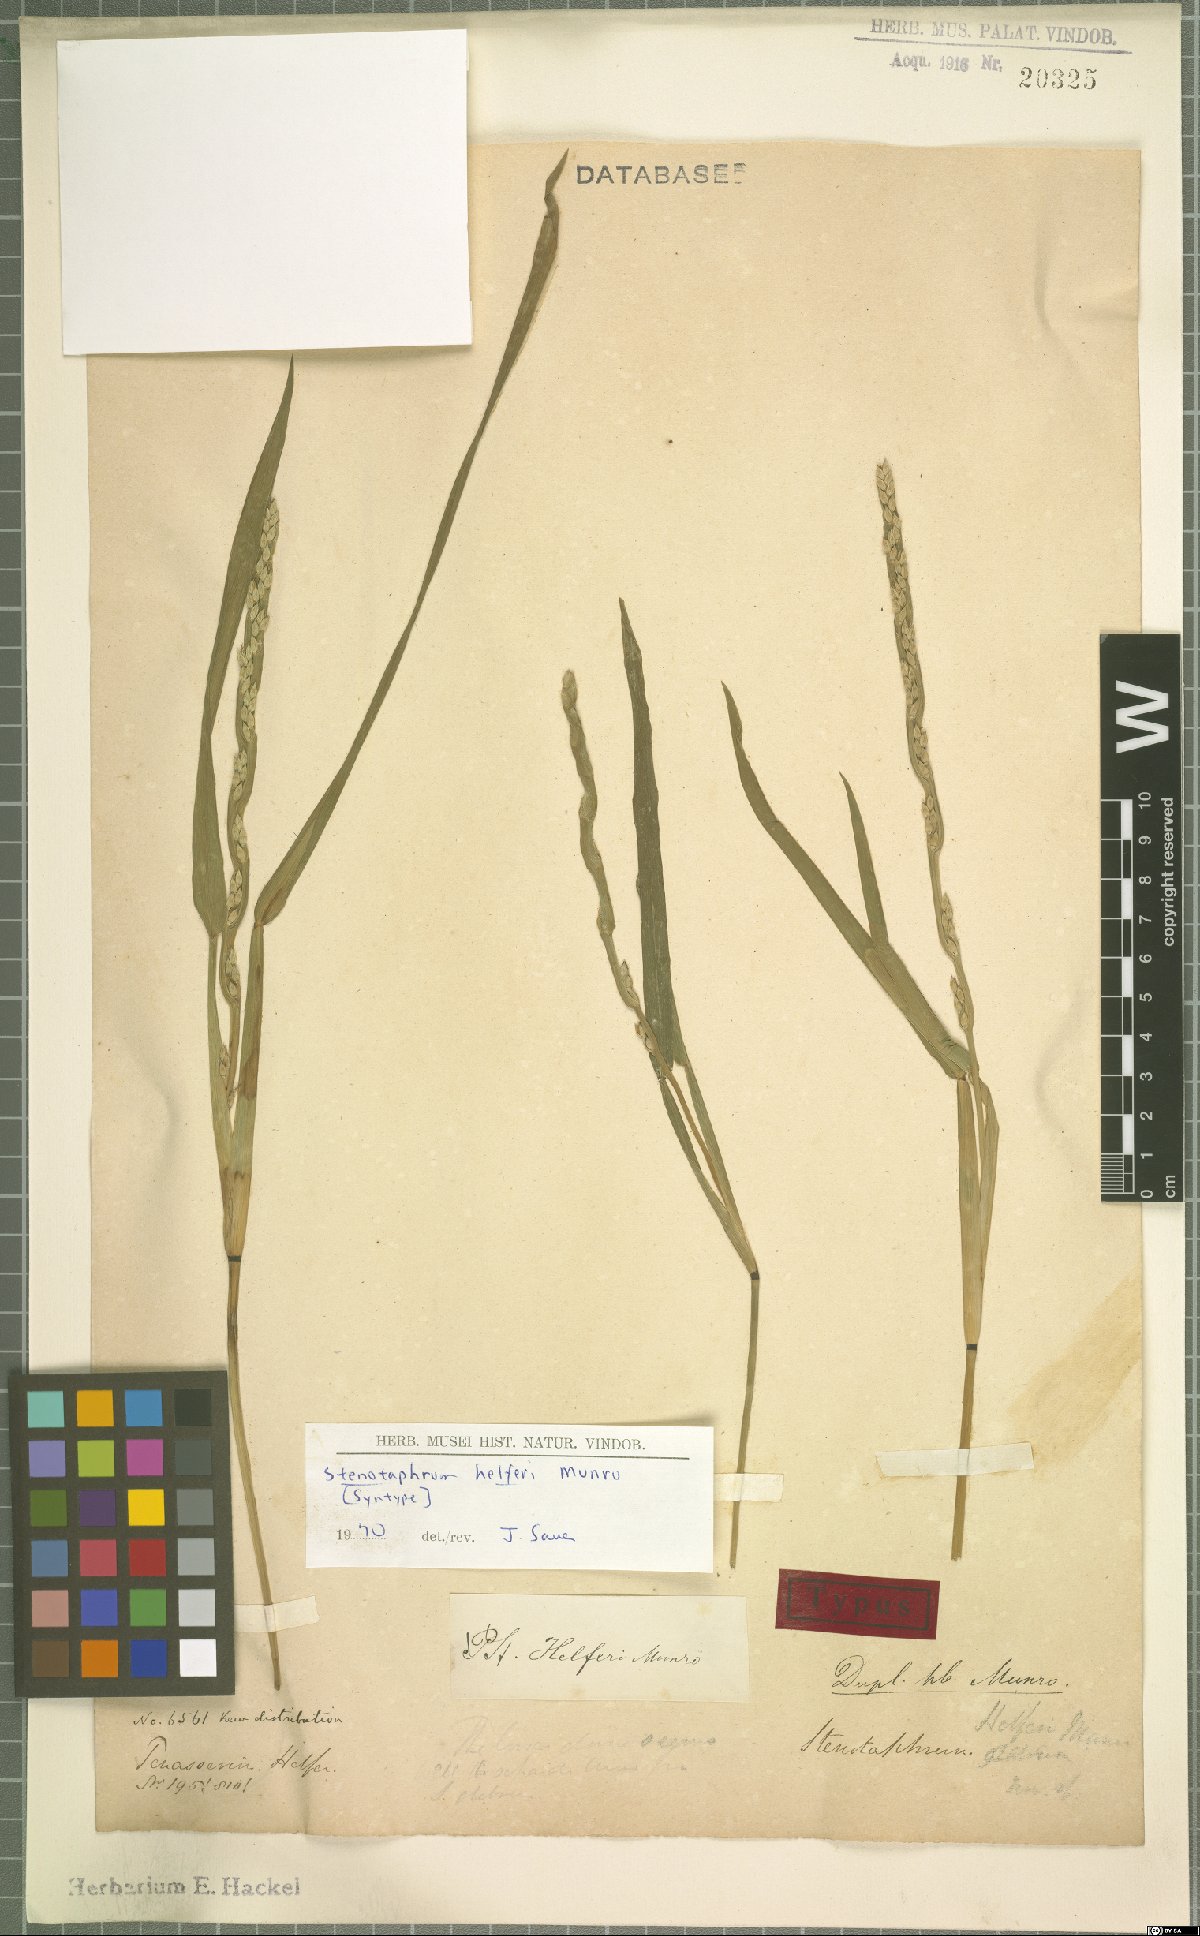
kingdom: Plantae
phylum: Tracheophyta
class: Liliopsida
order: Poales
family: Poaceae
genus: Stenotaphrum
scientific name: Stenotaphrum helferi
